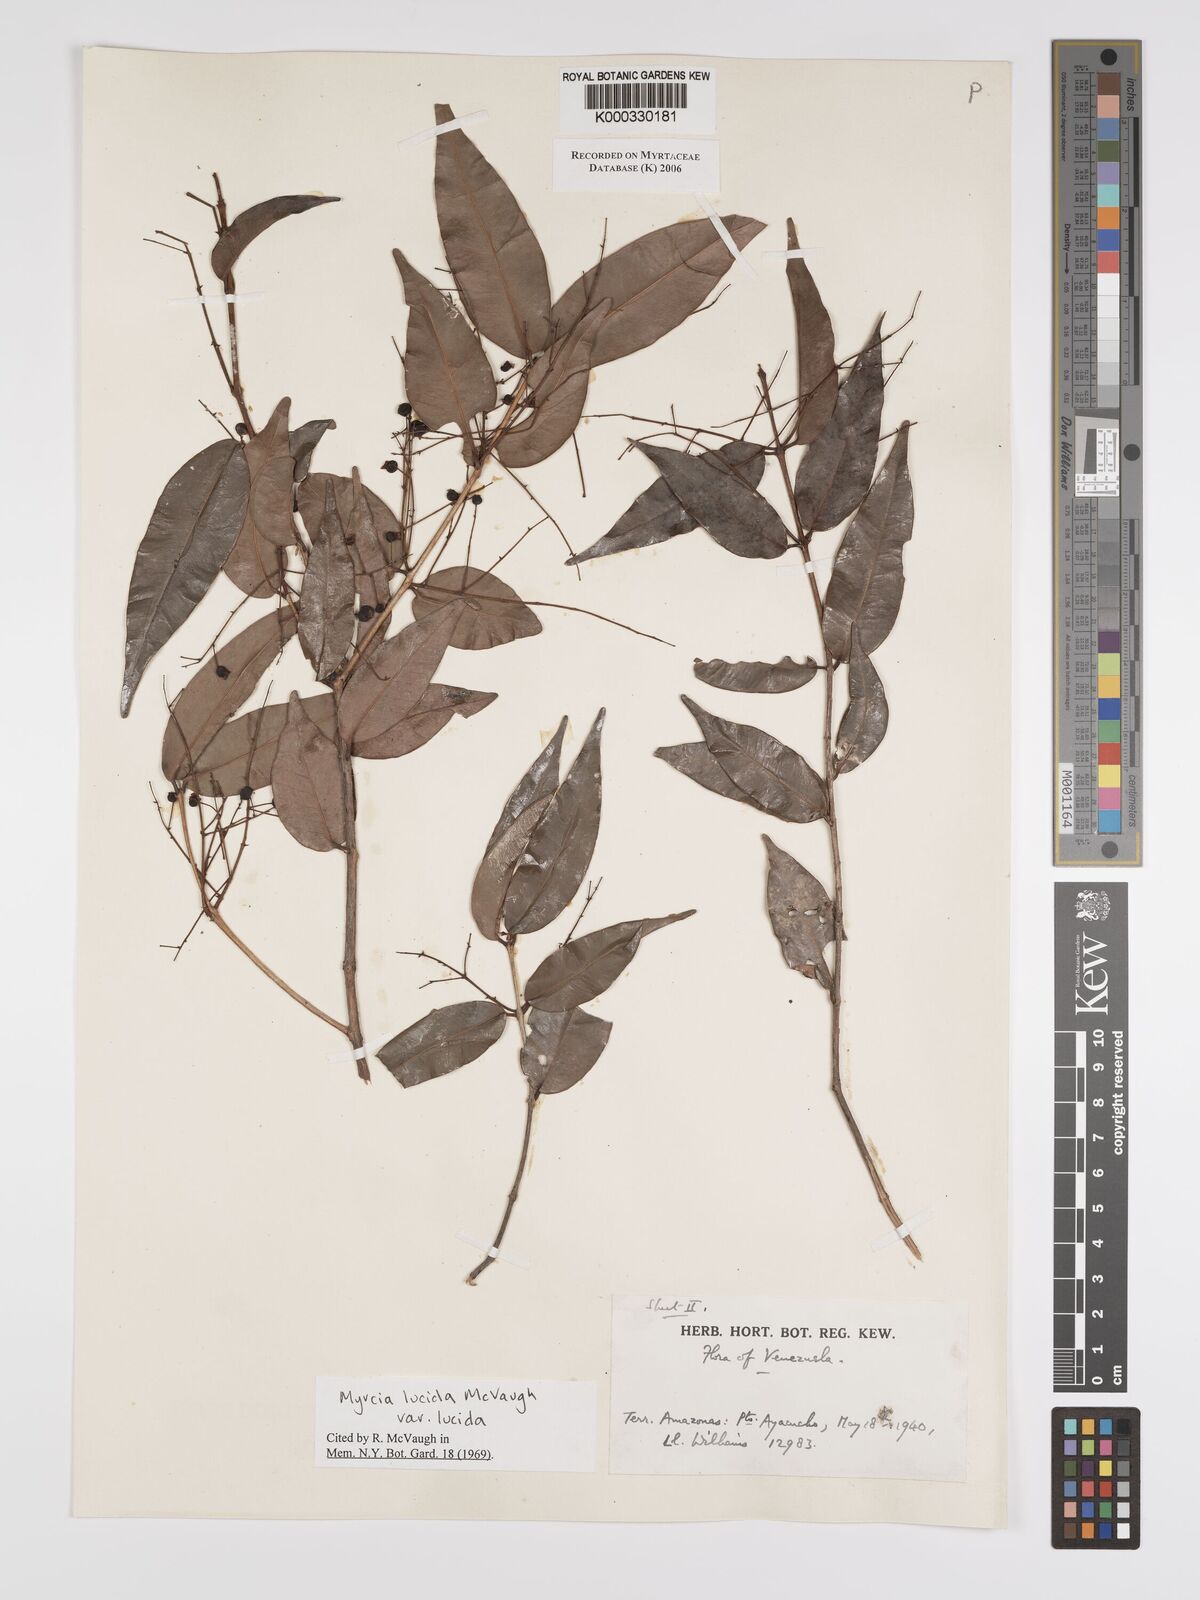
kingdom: Plantae
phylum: Tracheophyta
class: Magnoliopsida
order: Myrtales
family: Myrtaceae
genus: Myrcia
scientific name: Myrcia inaequiloba
